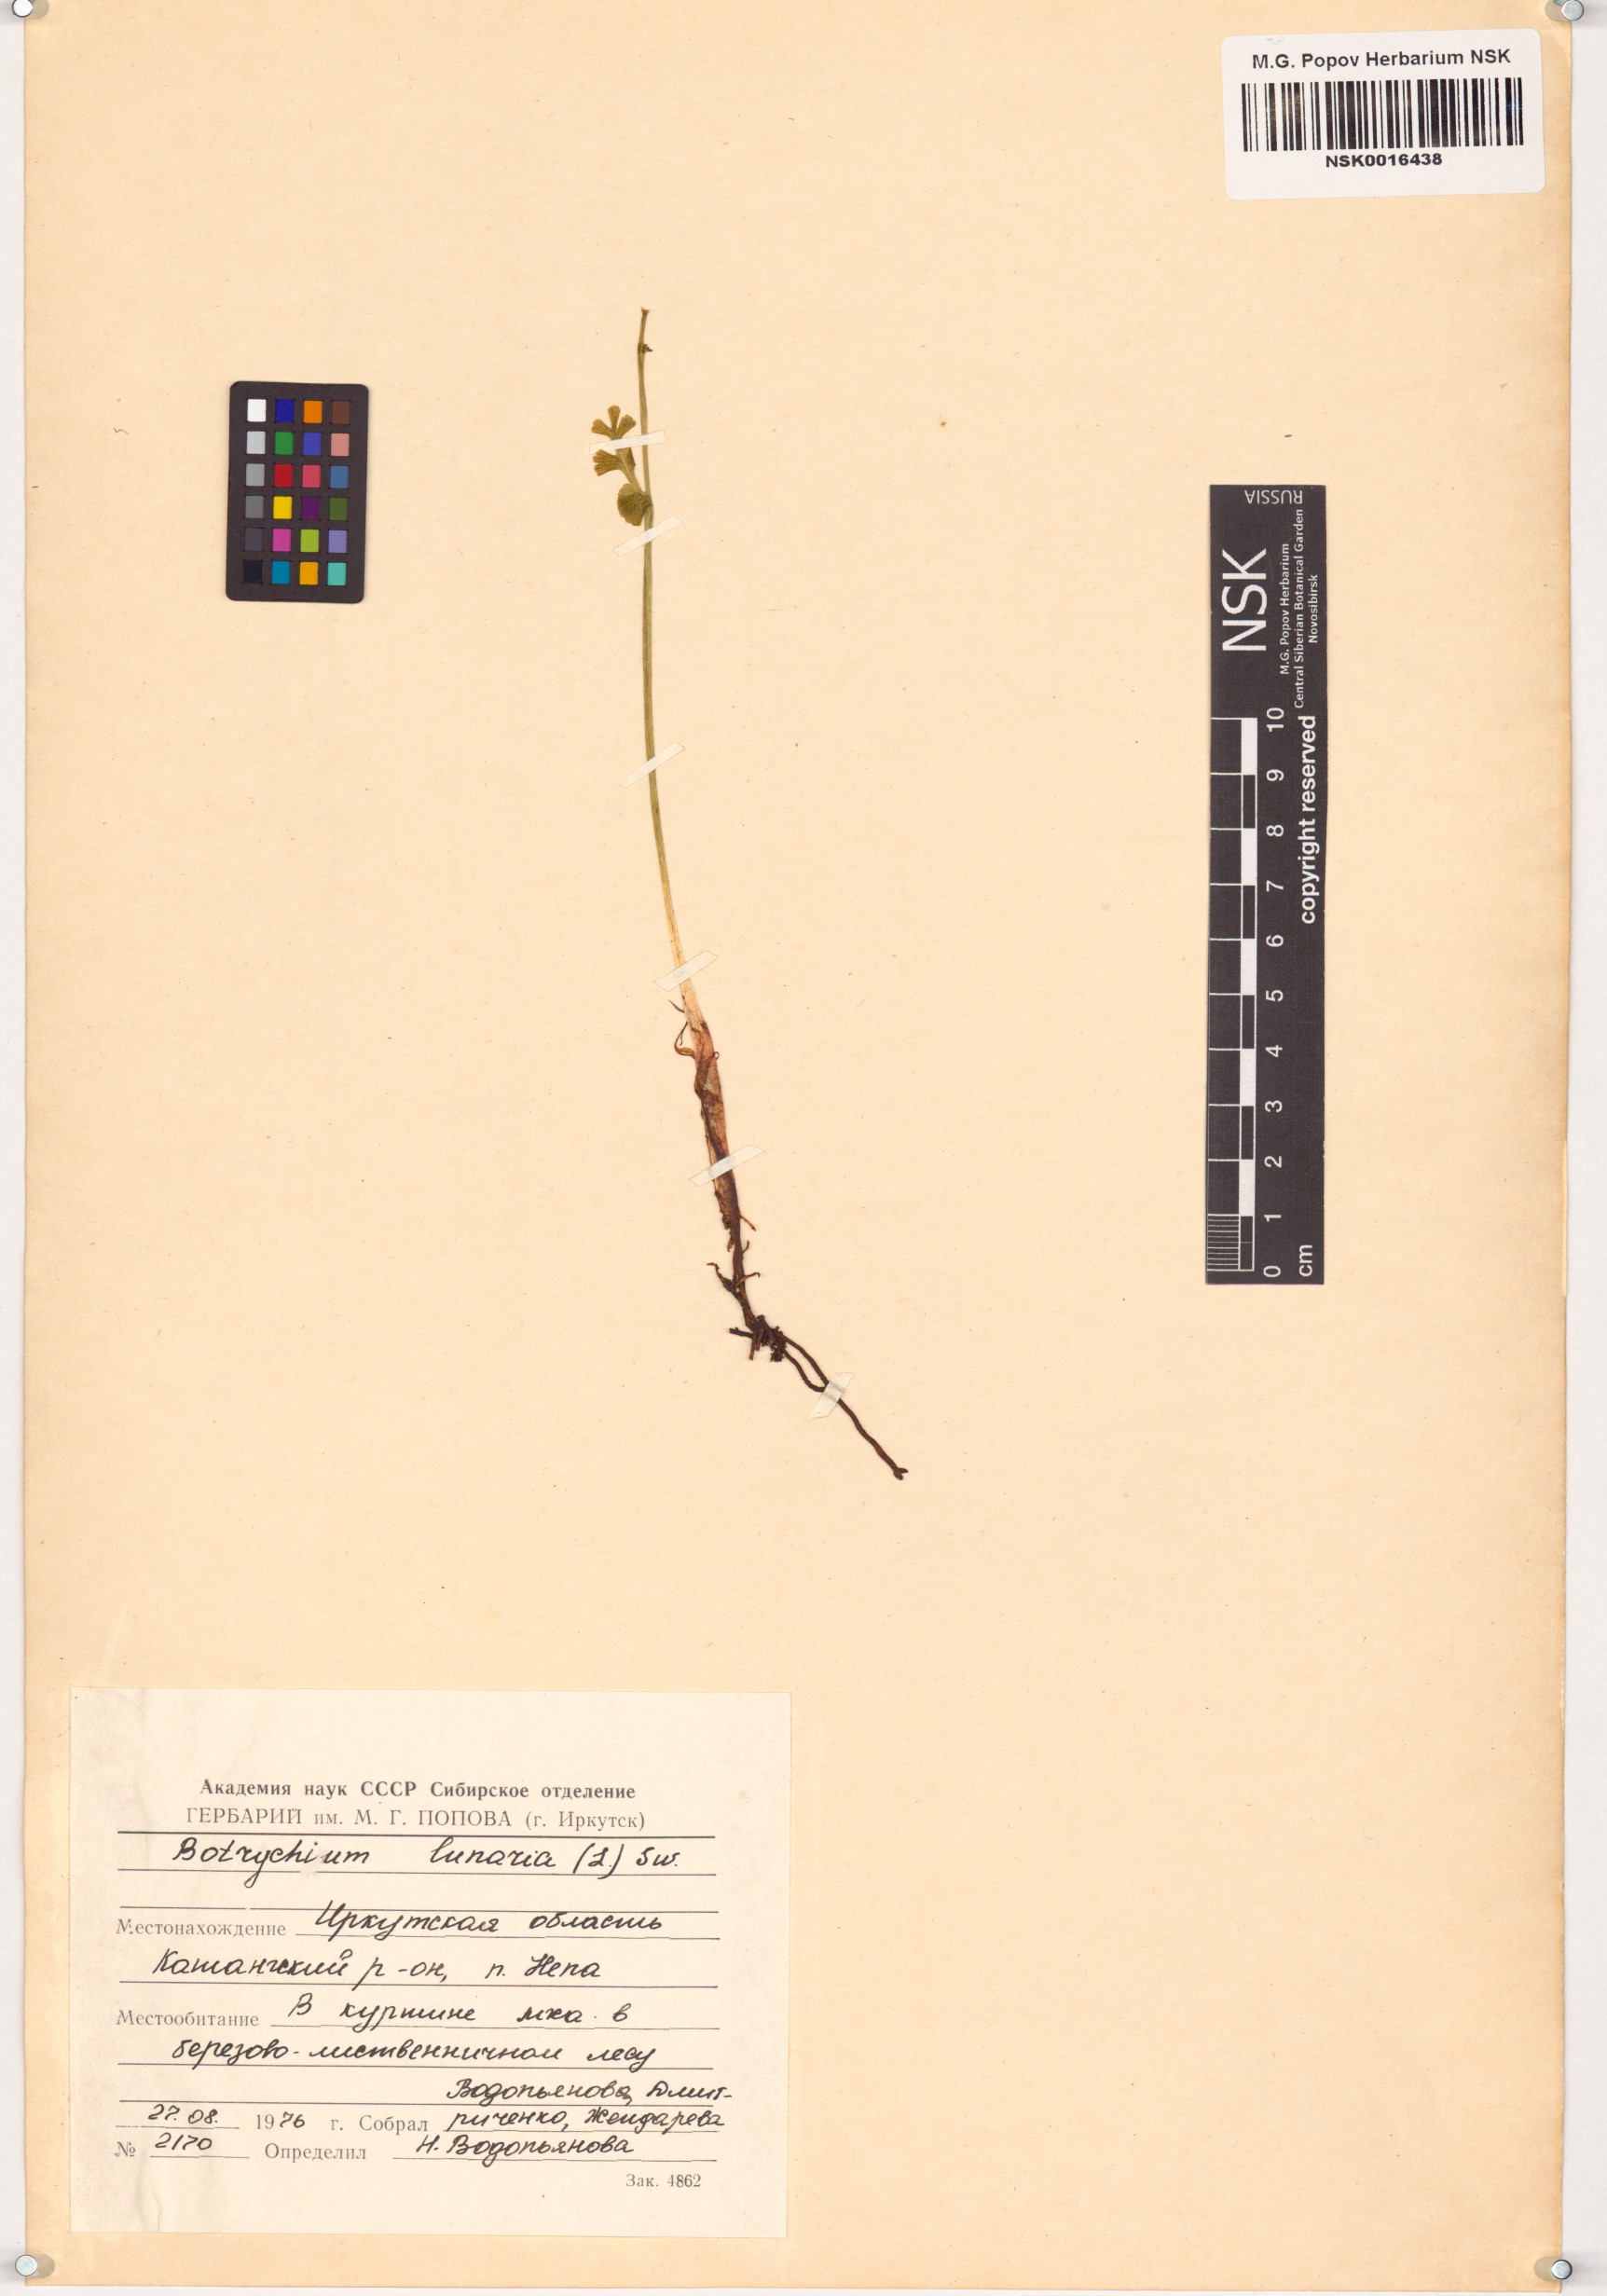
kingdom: Plantae
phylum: Tracheophyta
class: Polypodiopsida
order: Ophioglossales
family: Ophioglossaceae
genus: Botrychium
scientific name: Botrychium lunaria
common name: Moonwort
